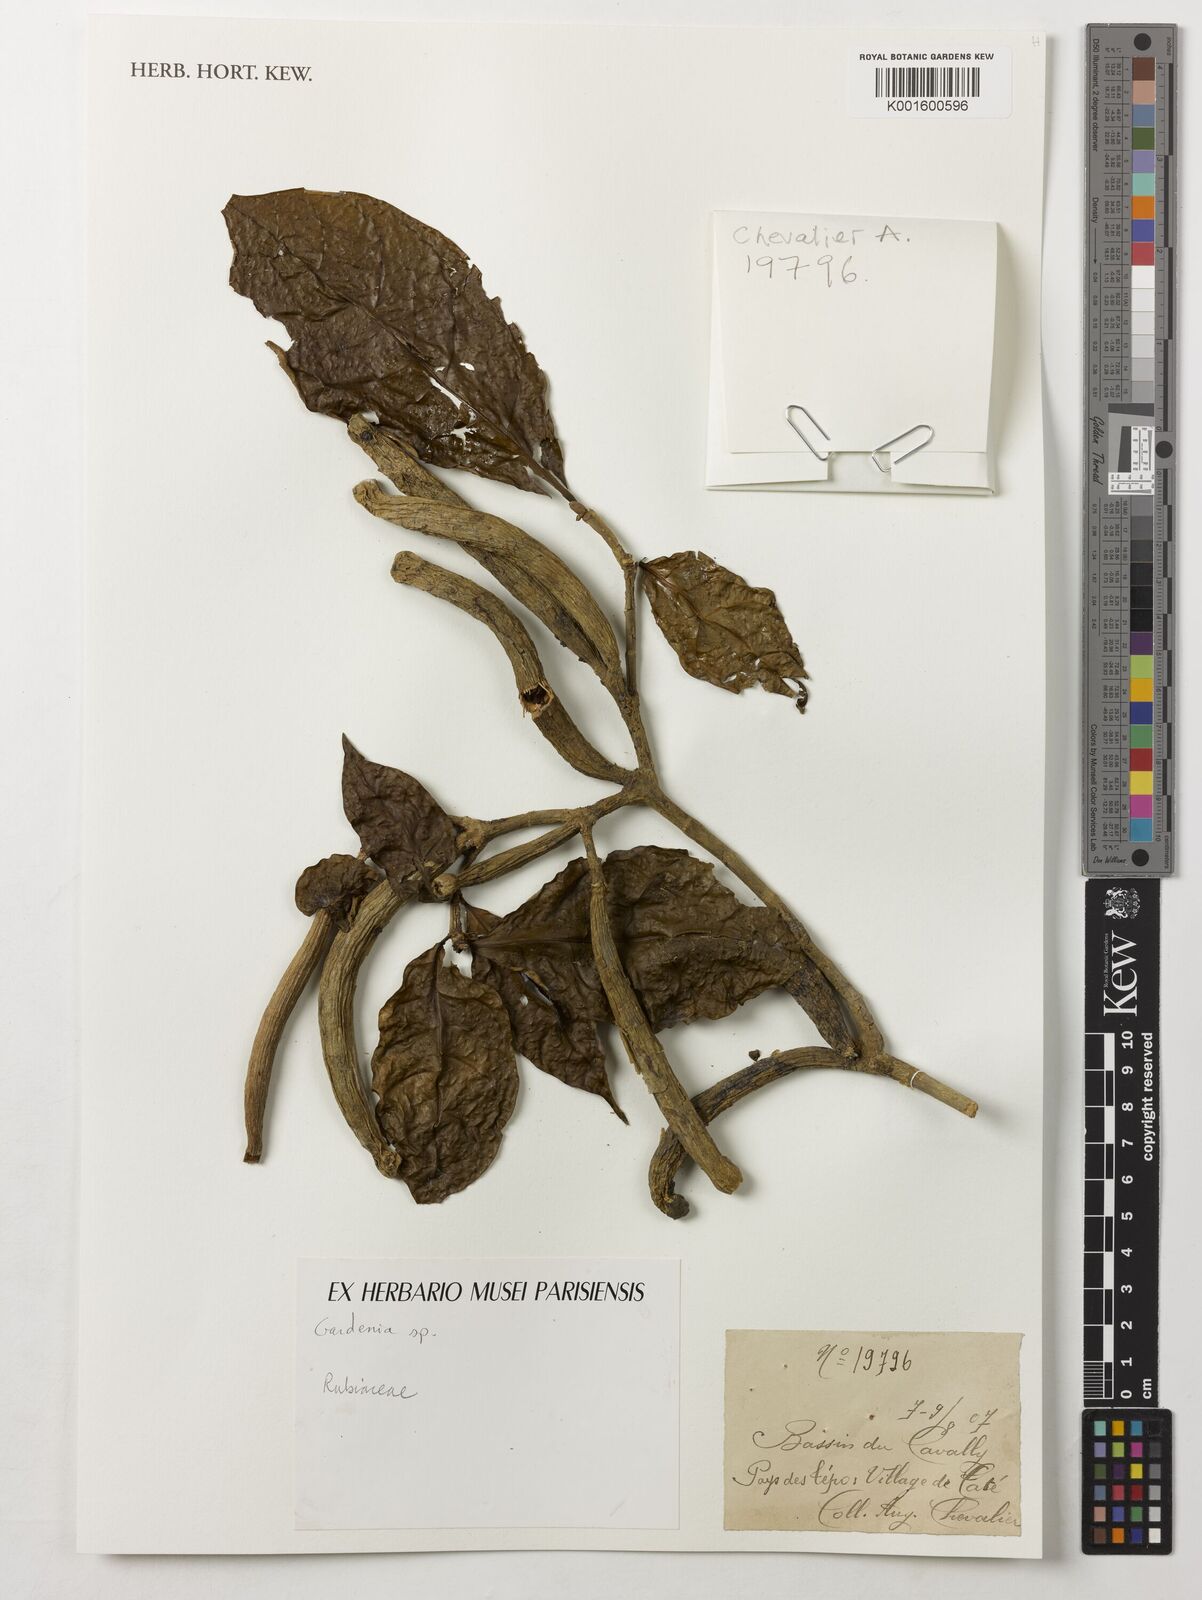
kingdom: Plantae
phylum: Tracheophyta
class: Magnoliopsida
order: Gentianales
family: Rubiaceae
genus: Gardenia
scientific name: Gardenia
